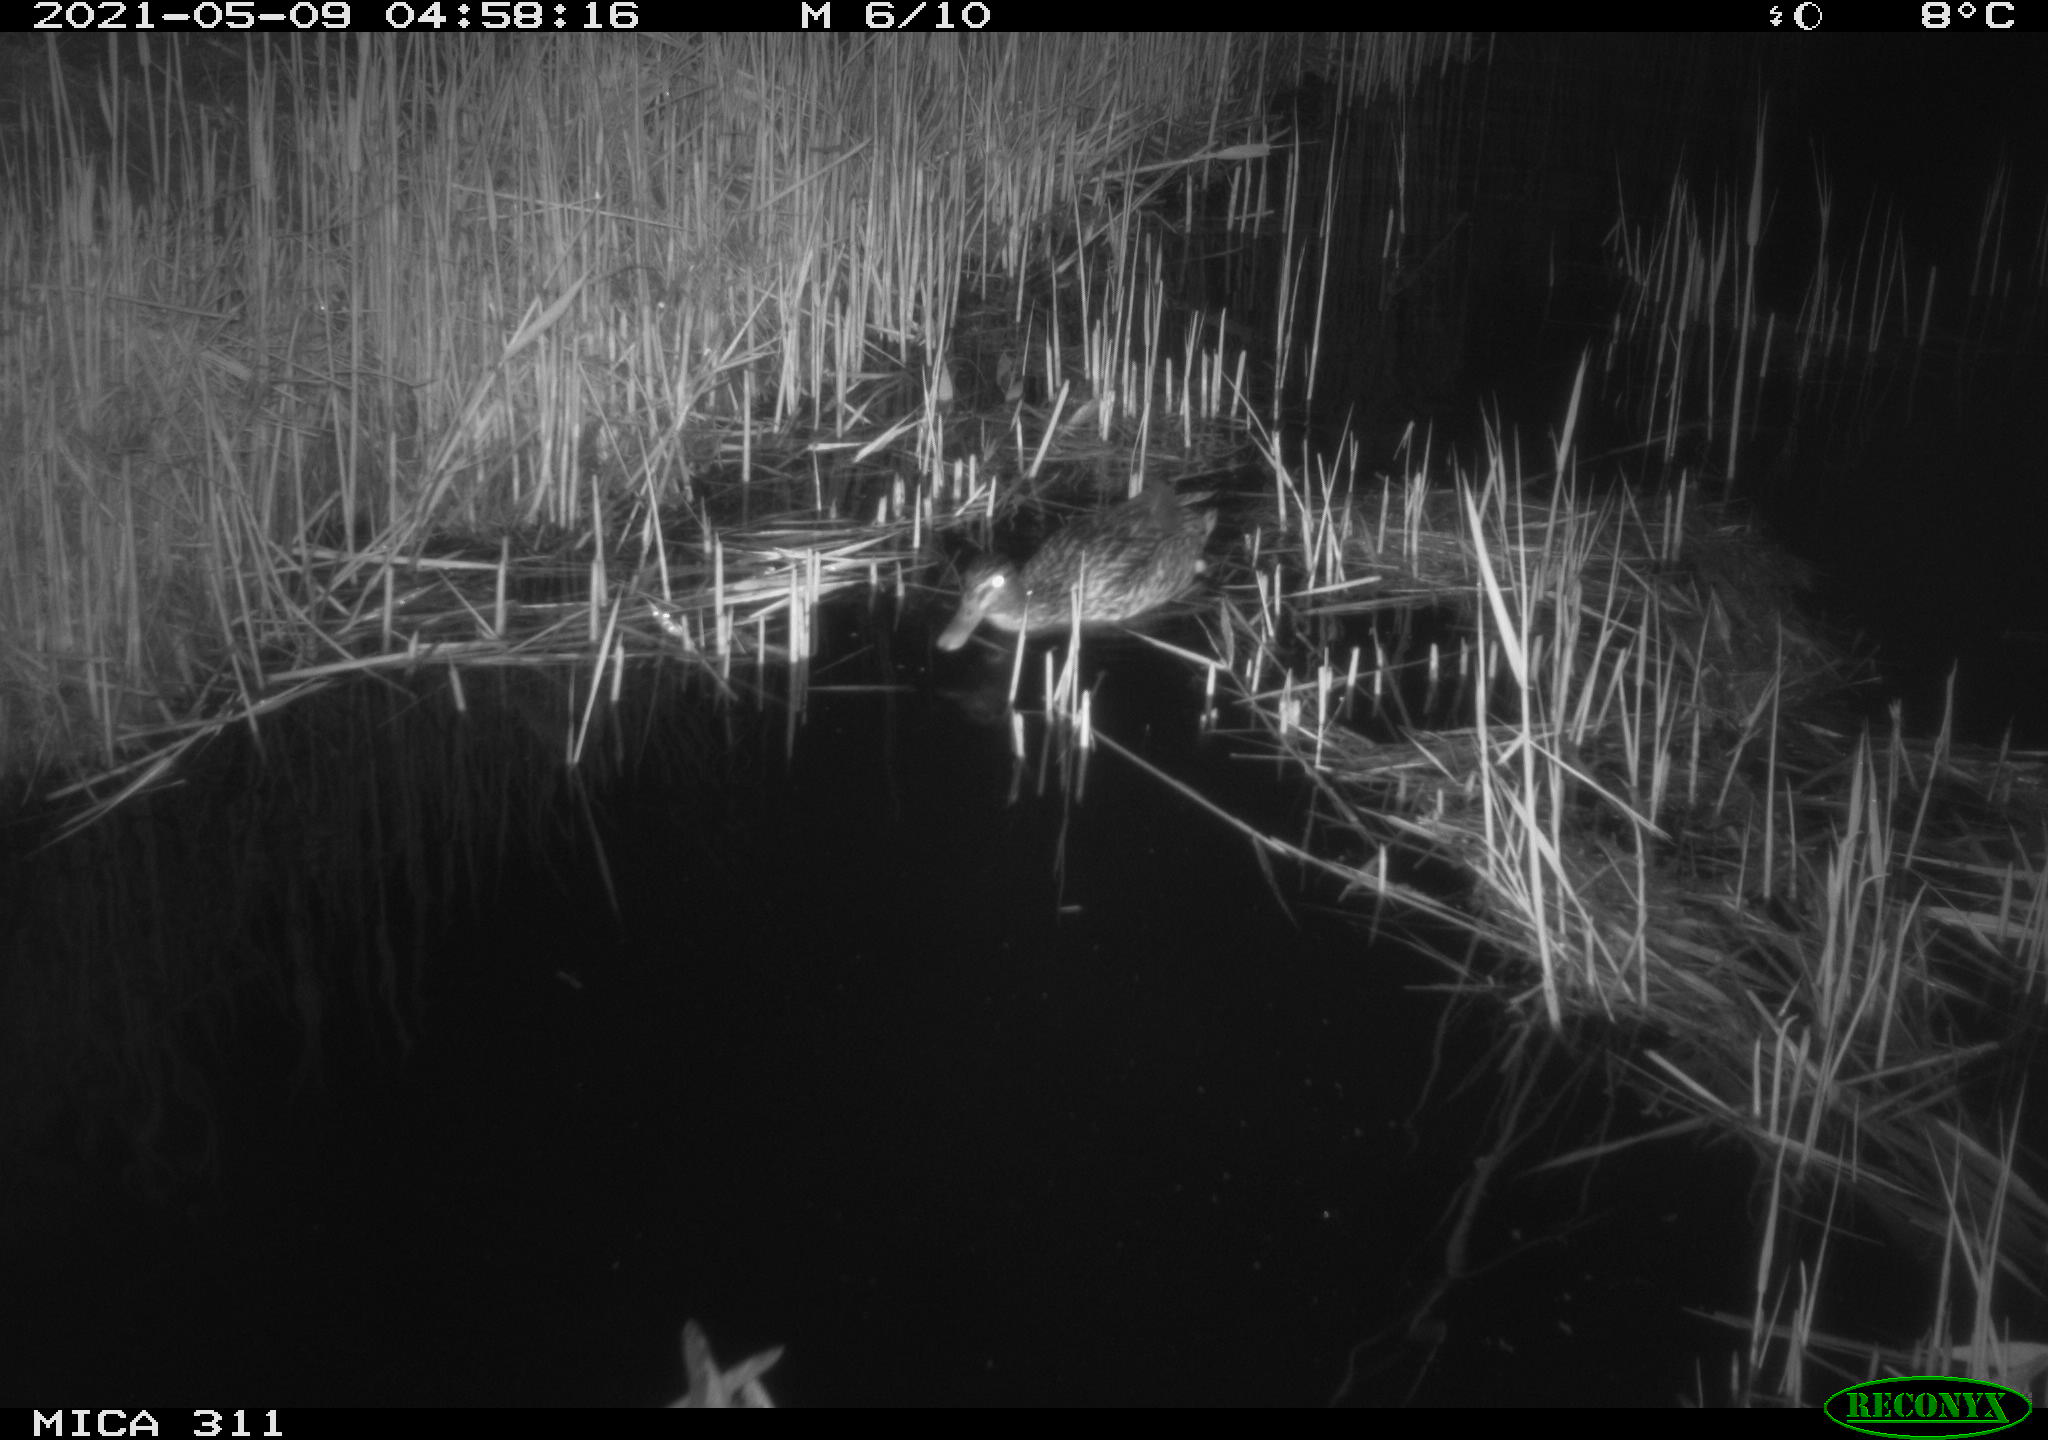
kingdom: Animalia
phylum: Chordata
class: Aves
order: Anseriformes
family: Anatidae
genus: Anas
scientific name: Anas
